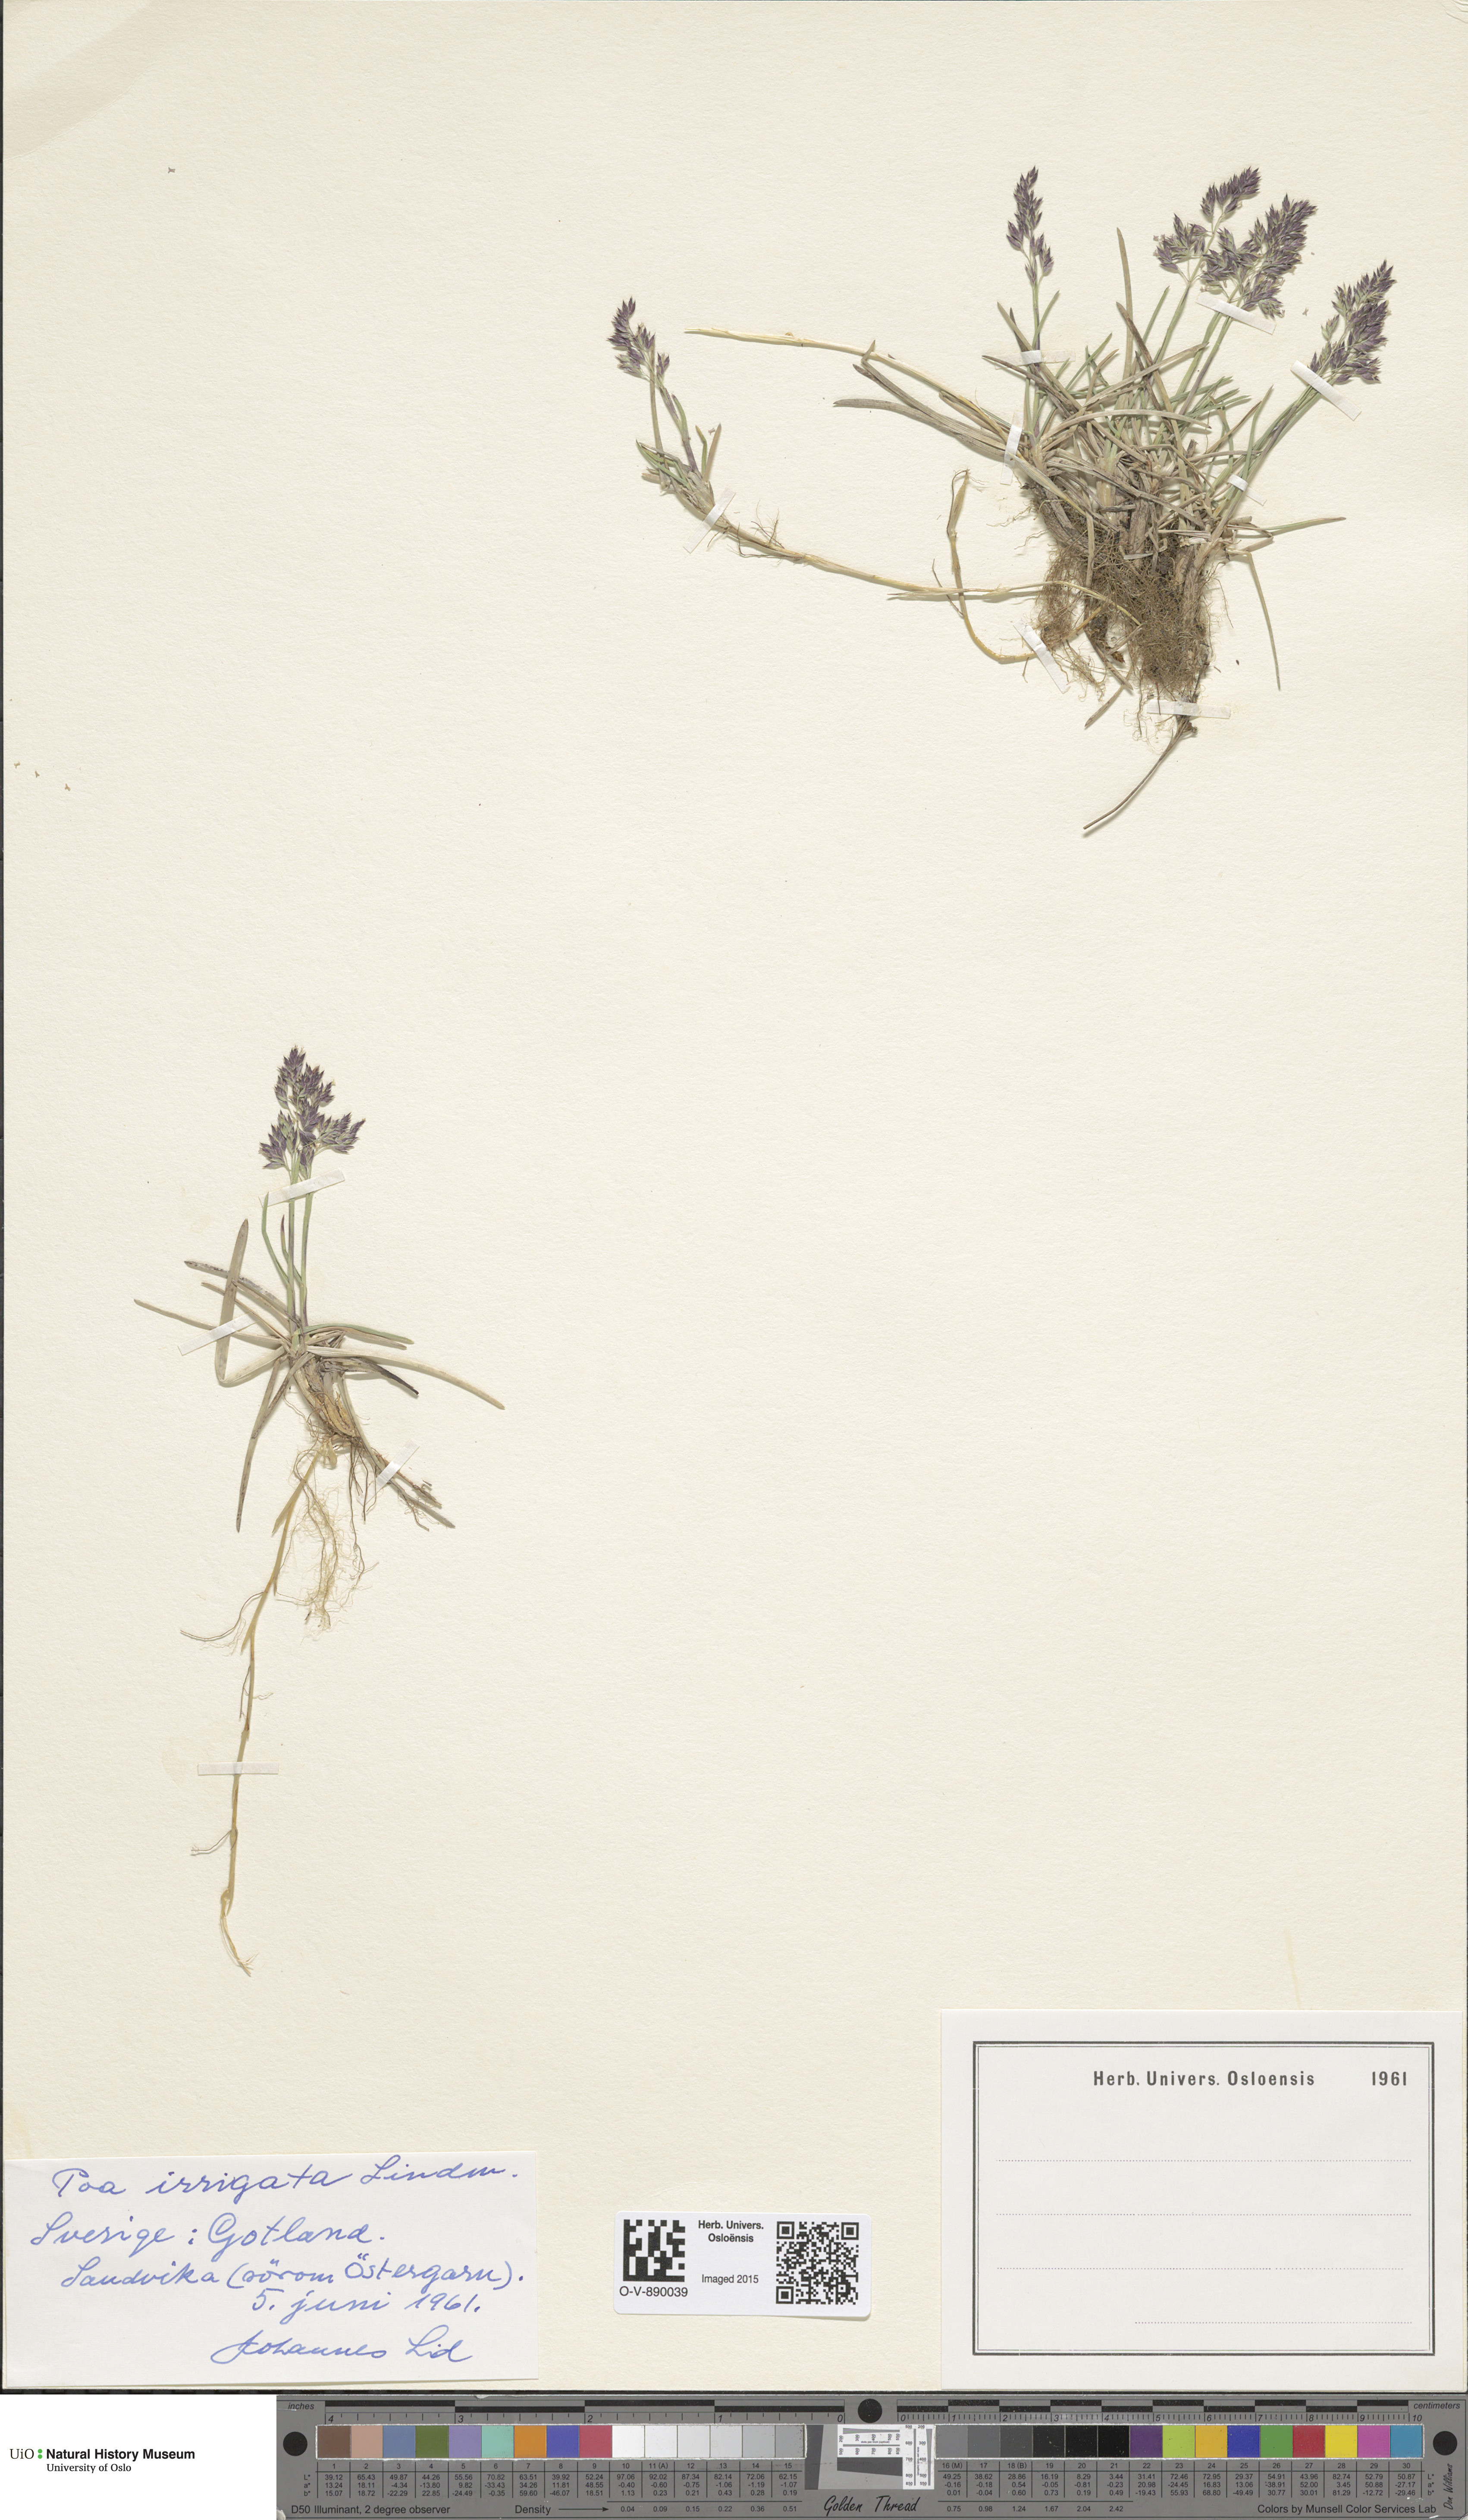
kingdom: Plantae
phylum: Tracheophyta
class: Liliopsida
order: Poales
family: Poaceae
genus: Poa
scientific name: Poa humilis
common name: Spreading meadow-grass
